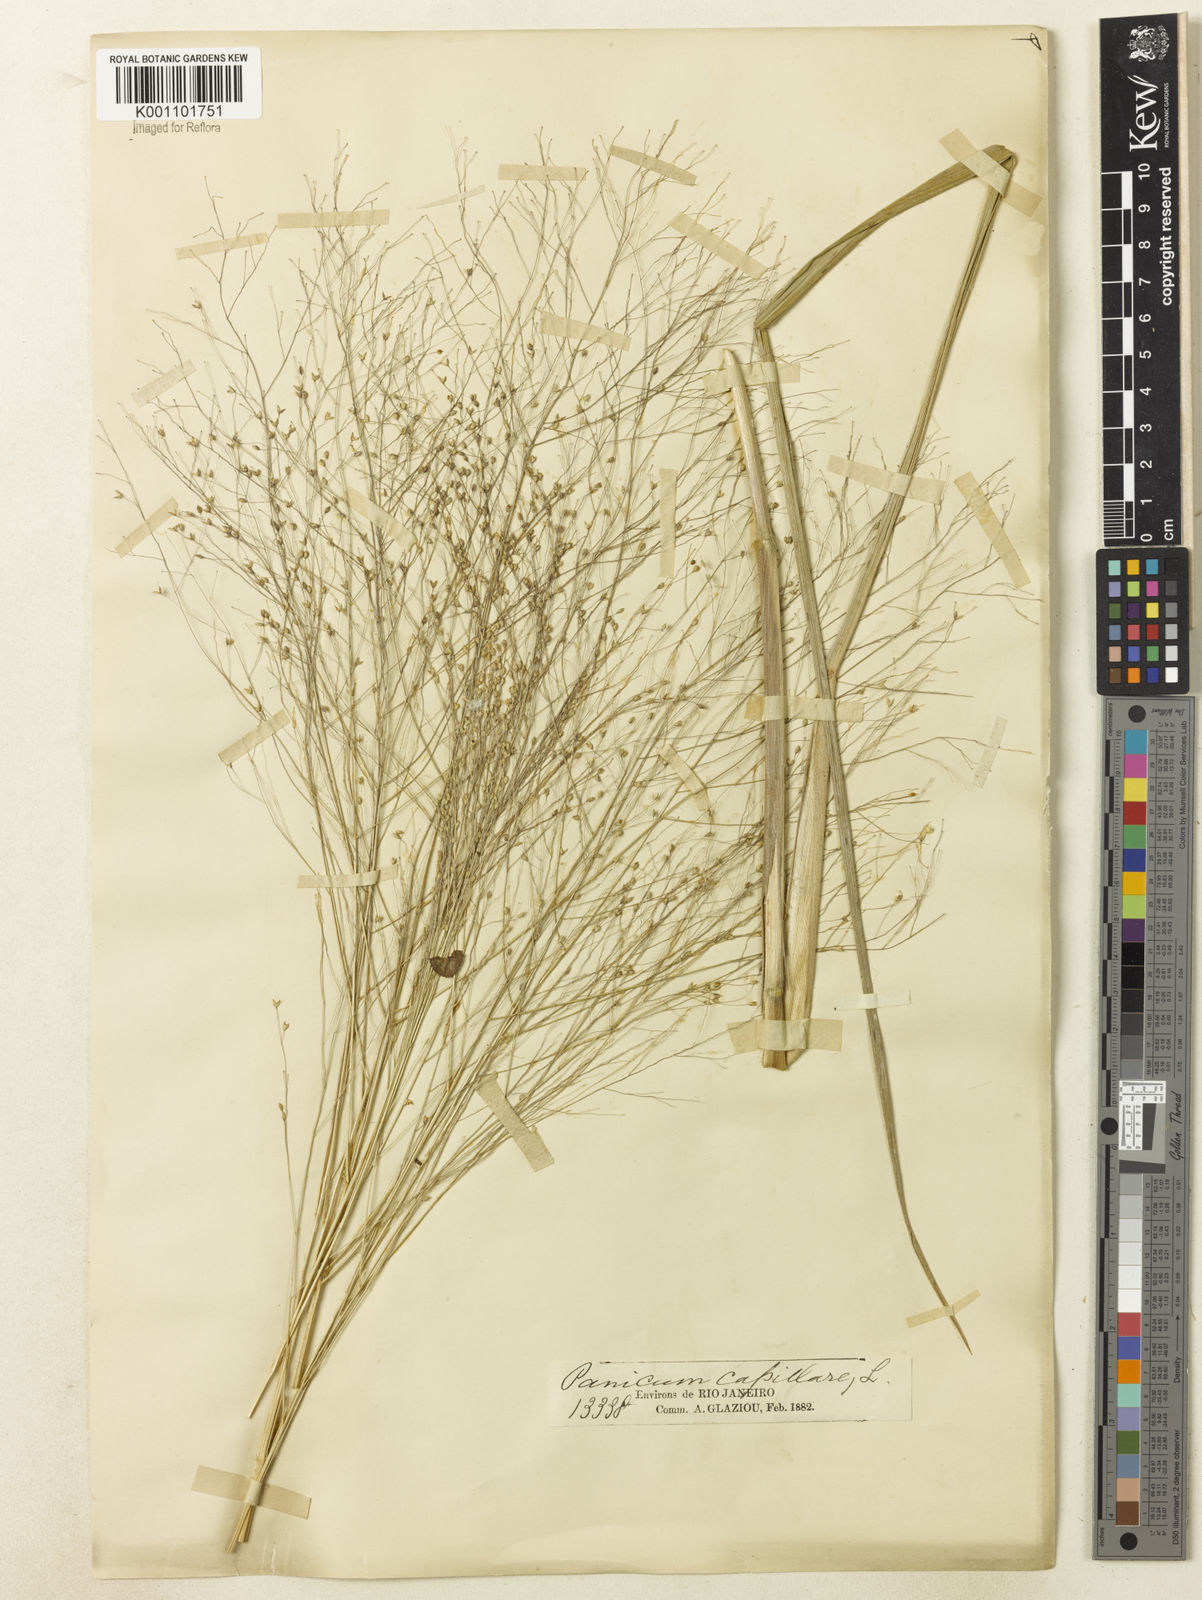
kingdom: Plantae
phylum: Tracheophyta
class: Liliopsida
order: Poales
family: Poaceae
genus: Panicum
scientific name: Panicum bergii
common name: Berg's panicgrass
